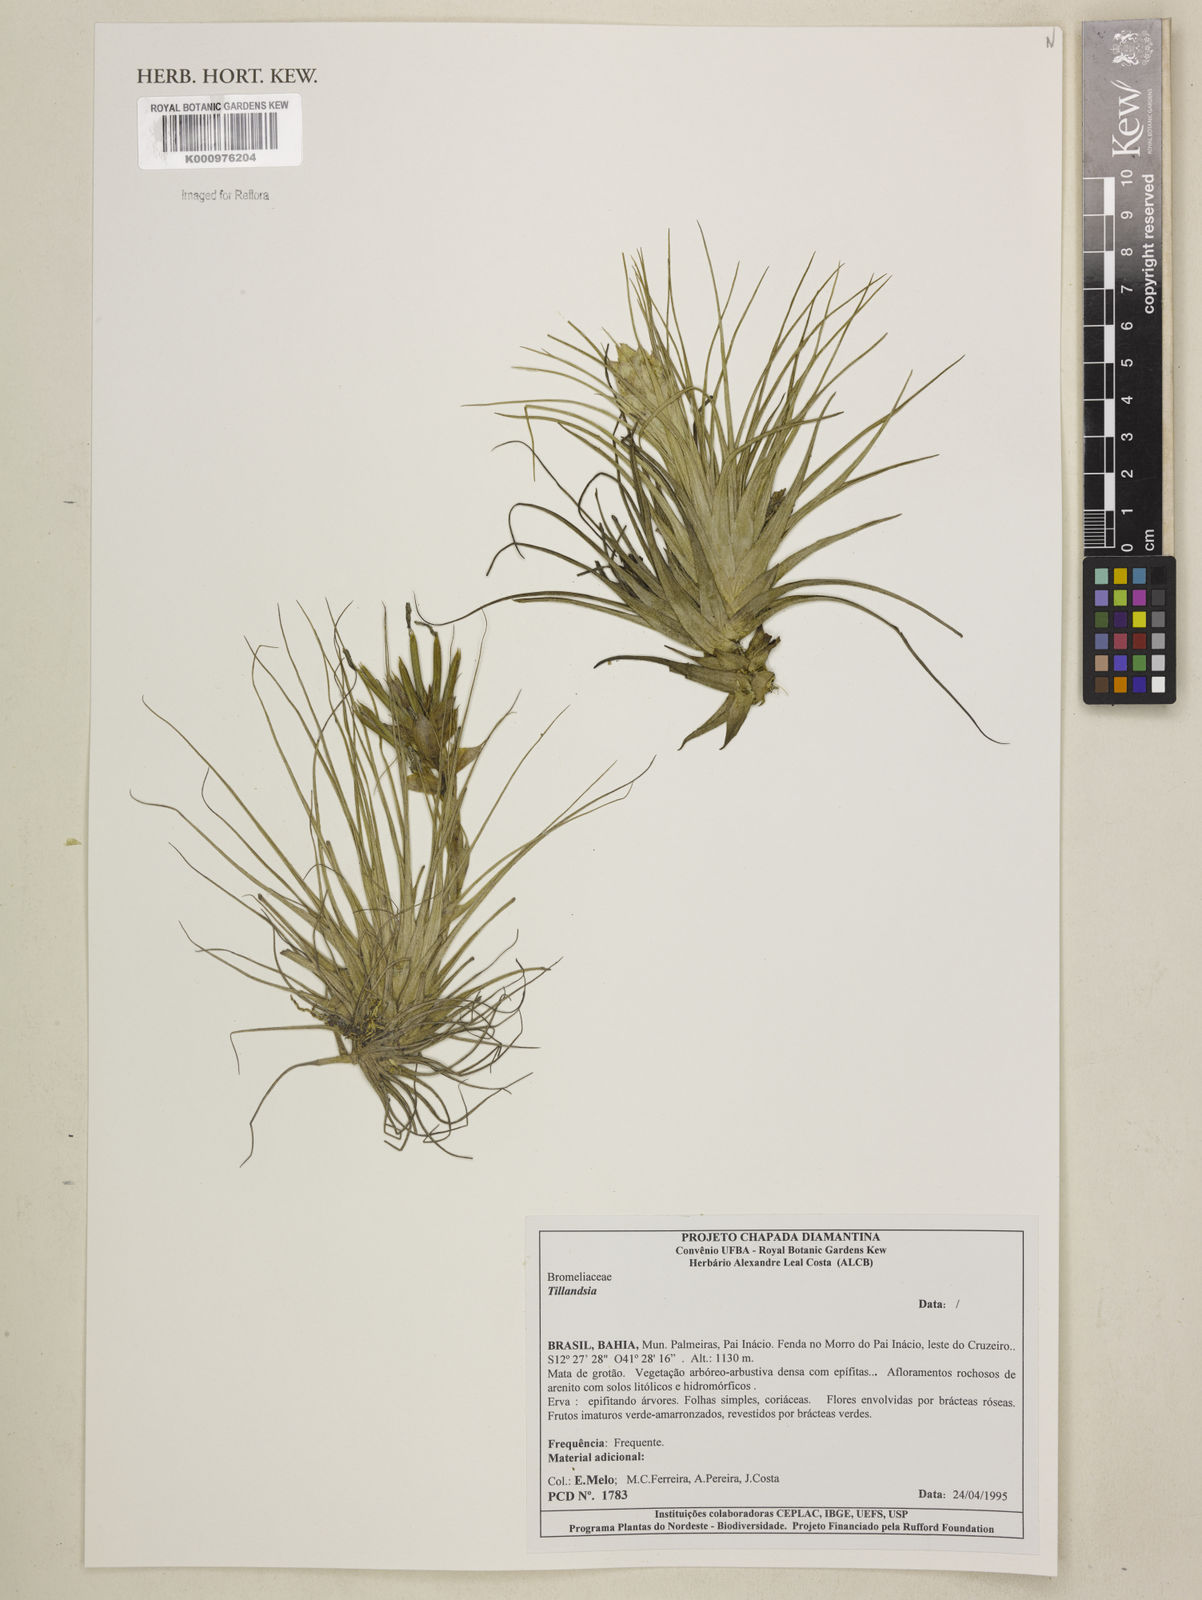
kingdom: Plantae
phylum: Tracheophyta
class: Liliopsida
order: Poales
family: Bromeliaceae
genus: Tillandsia
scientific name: Tillandsia
